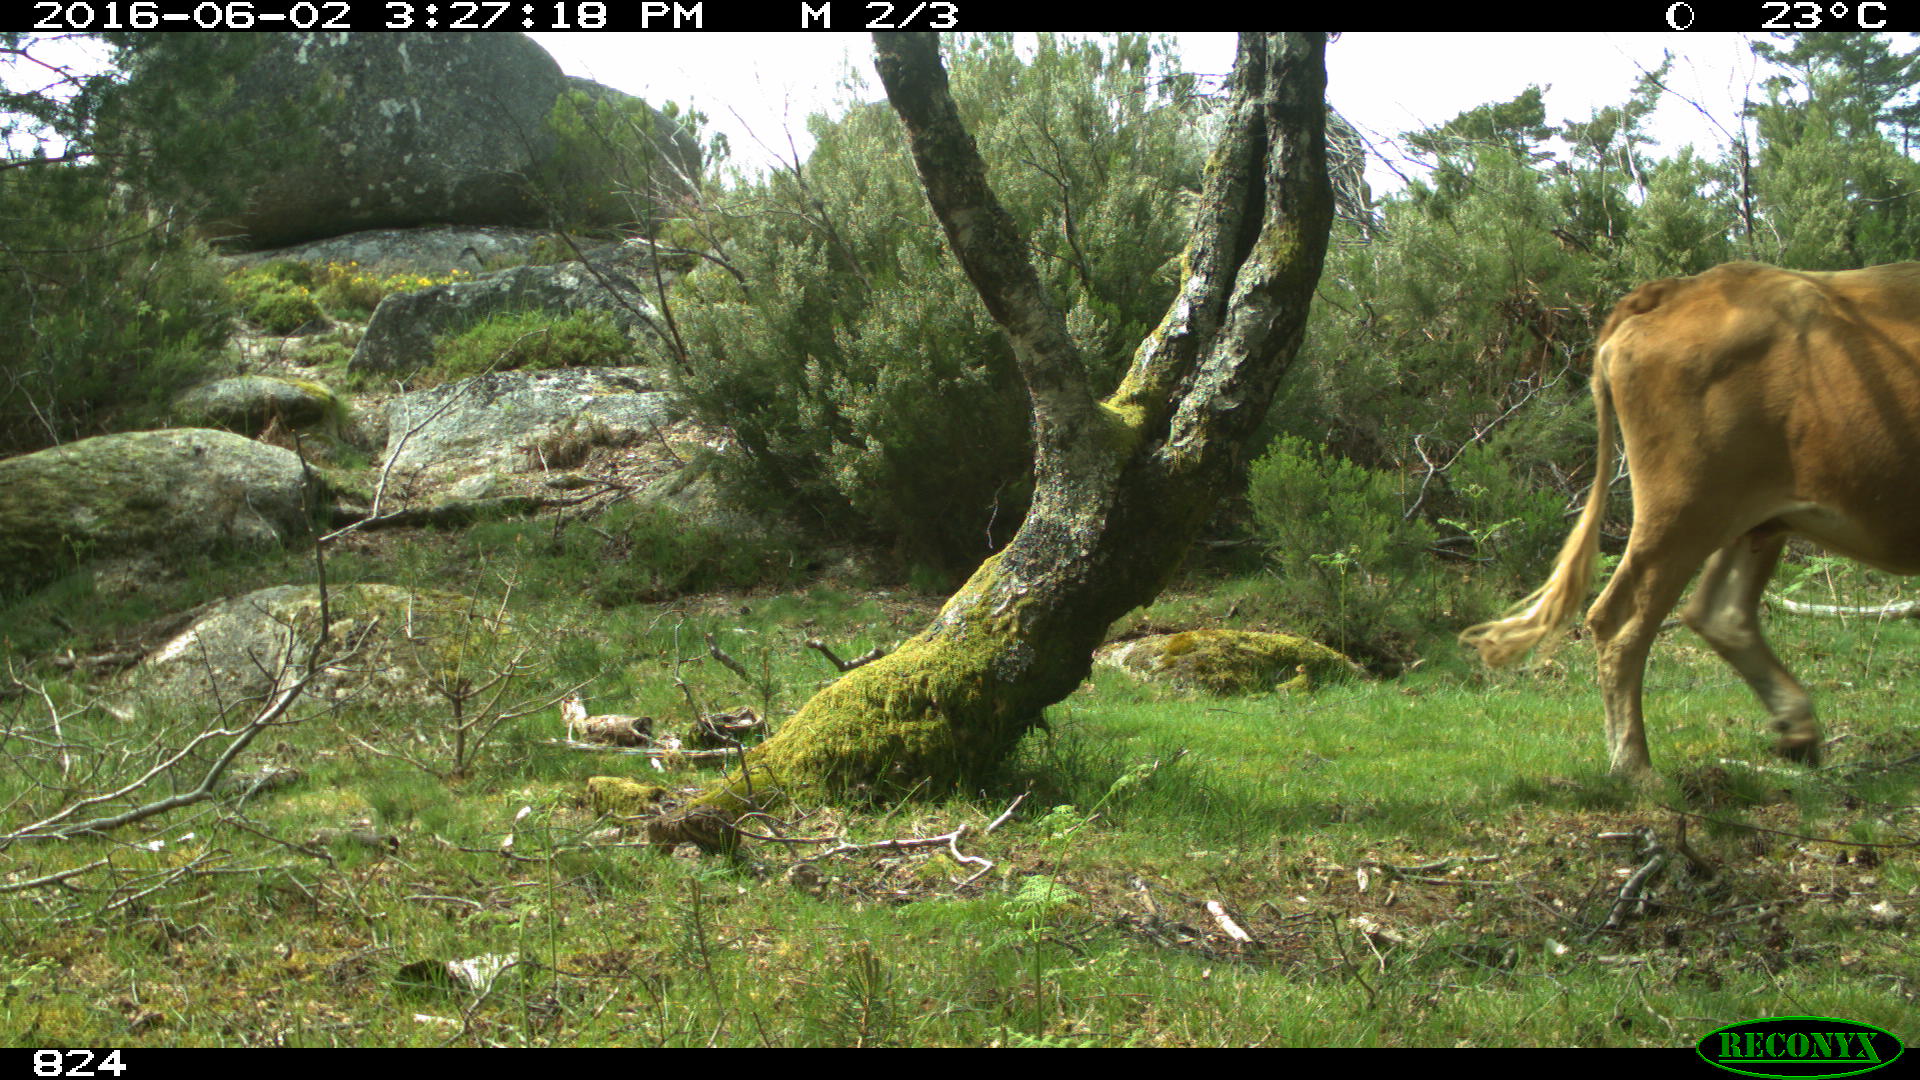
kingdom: Animalia
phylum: Chordata
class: Mammalia
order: Artiodactyla
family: Bovidae
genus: Bos
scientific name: Bos taurus
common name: Domesticated cattle
